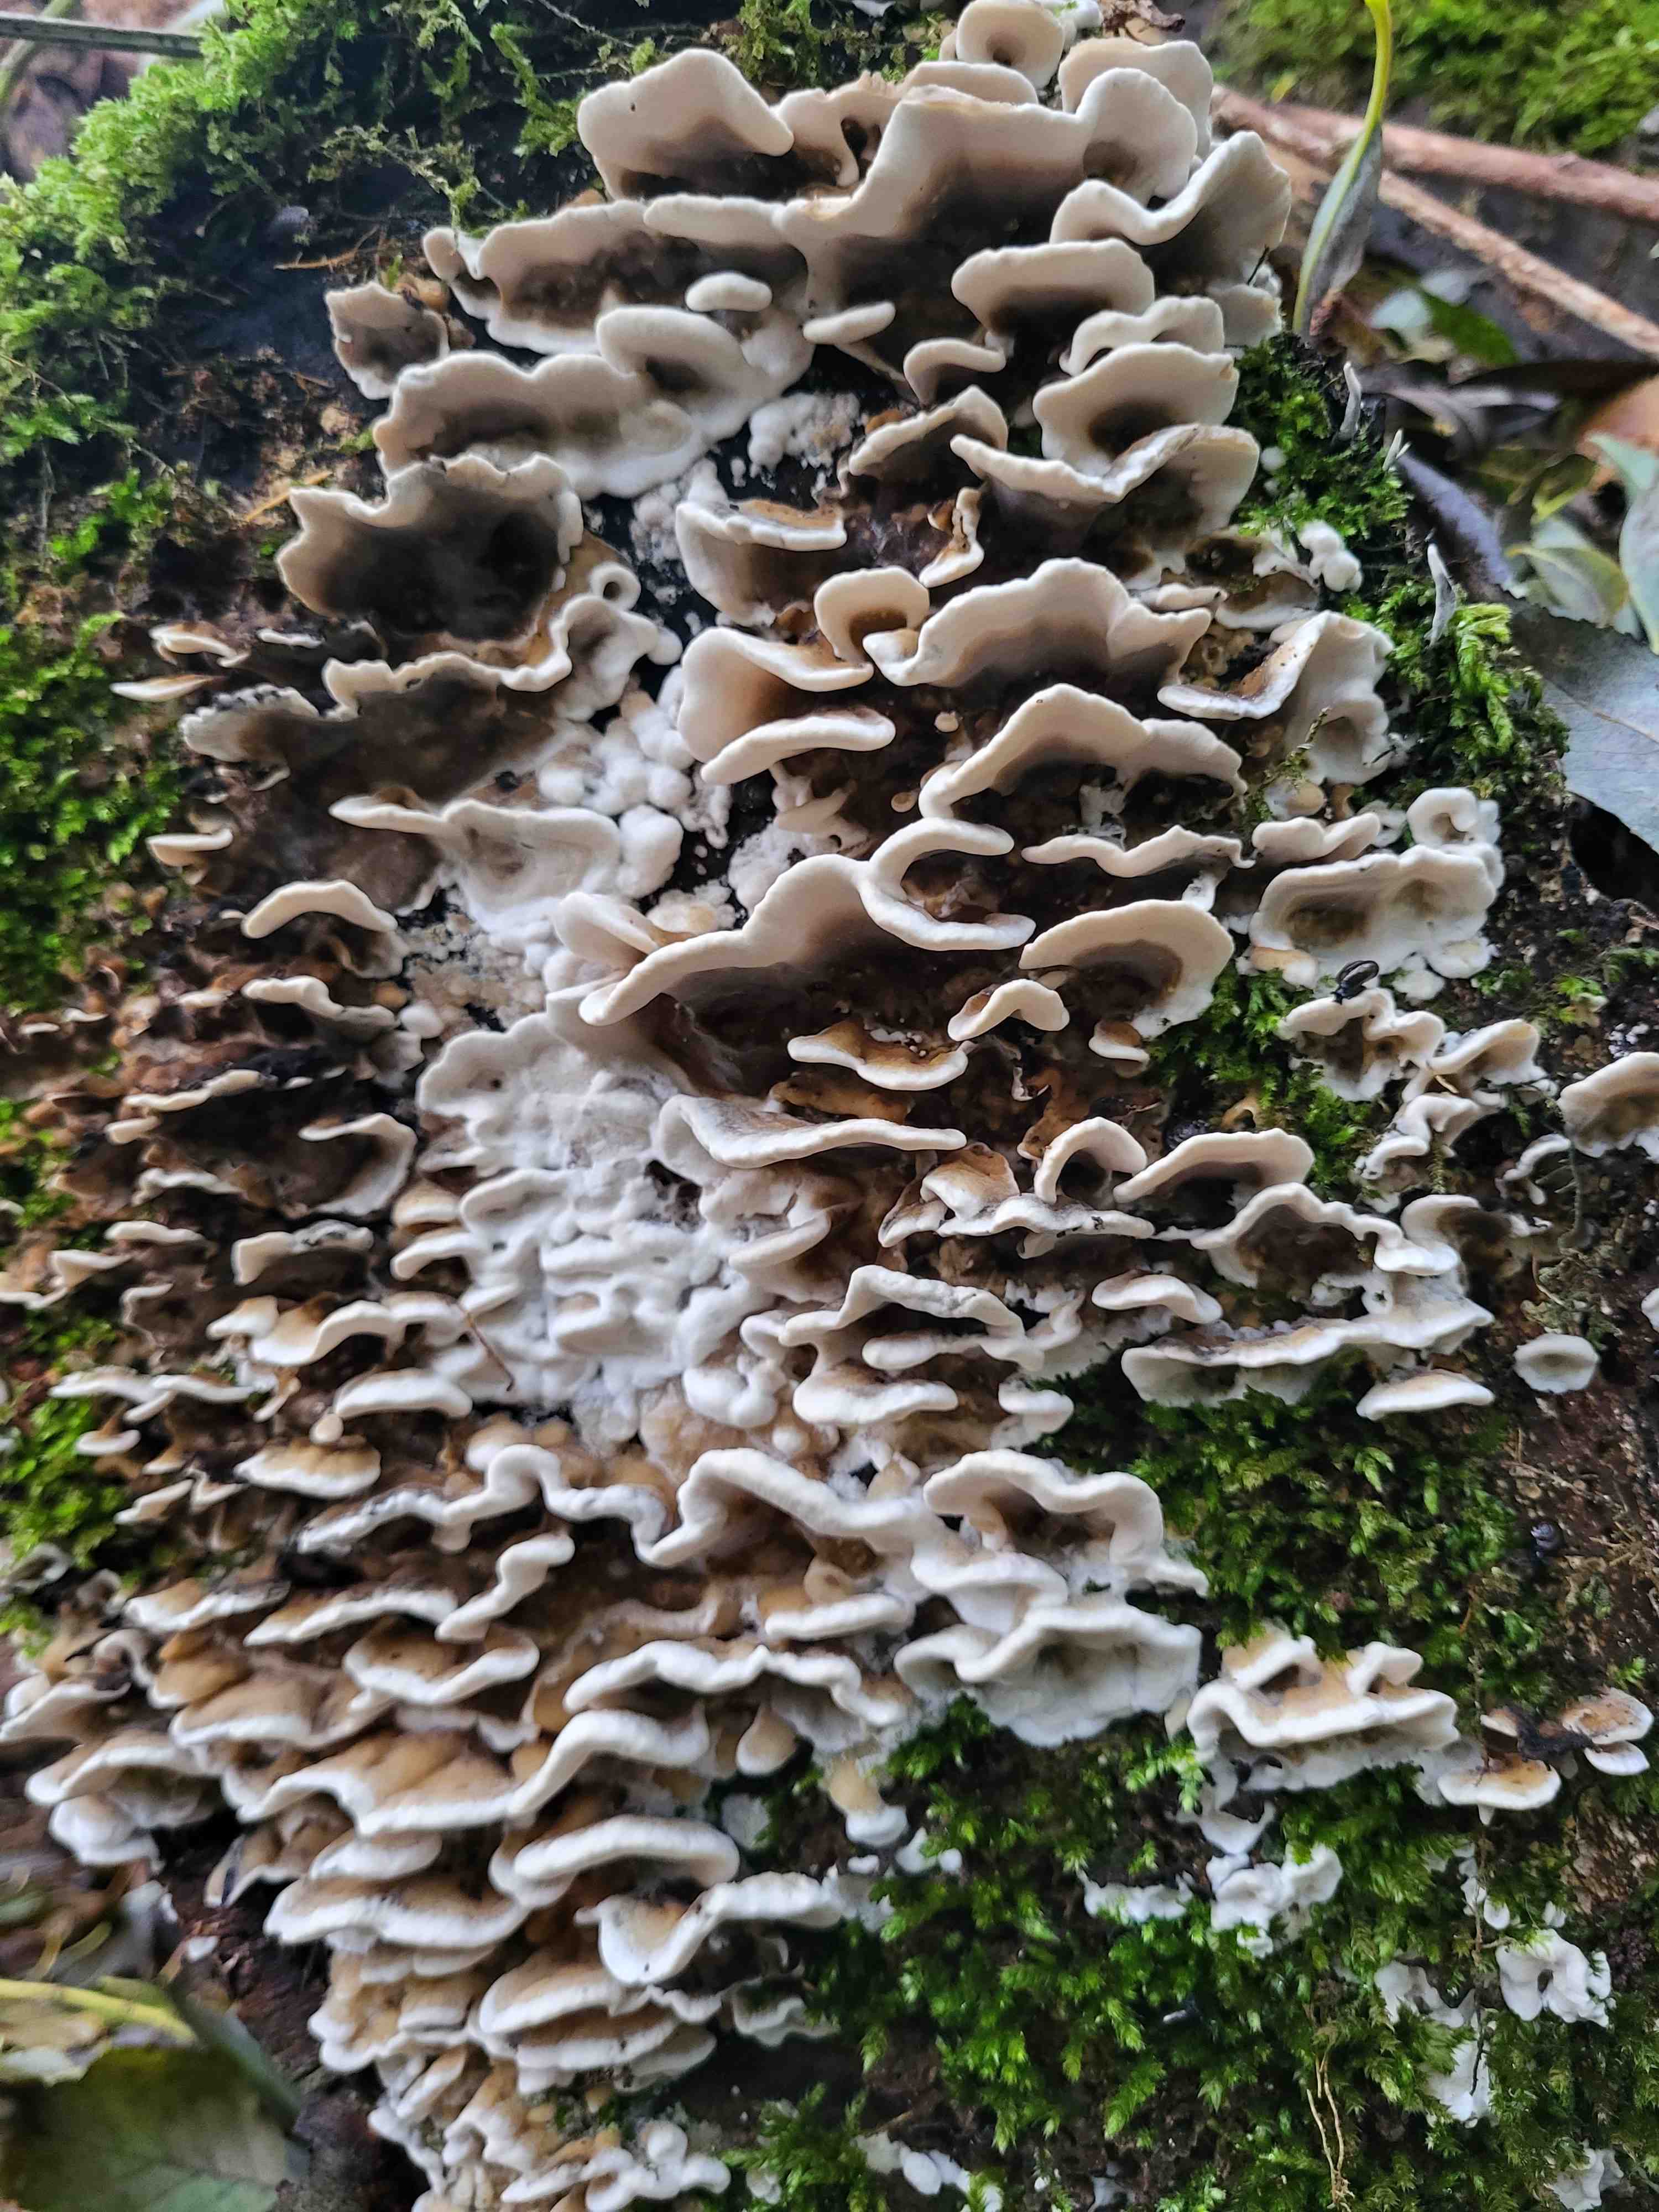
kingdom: Fungi
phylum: Basidiomycota
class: Agaricomycetes
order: Polyporales
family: Phanerochaetaceae
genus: Bjerkandera
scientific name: Bjerkandera adusta
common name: sveden sodporesvamp
